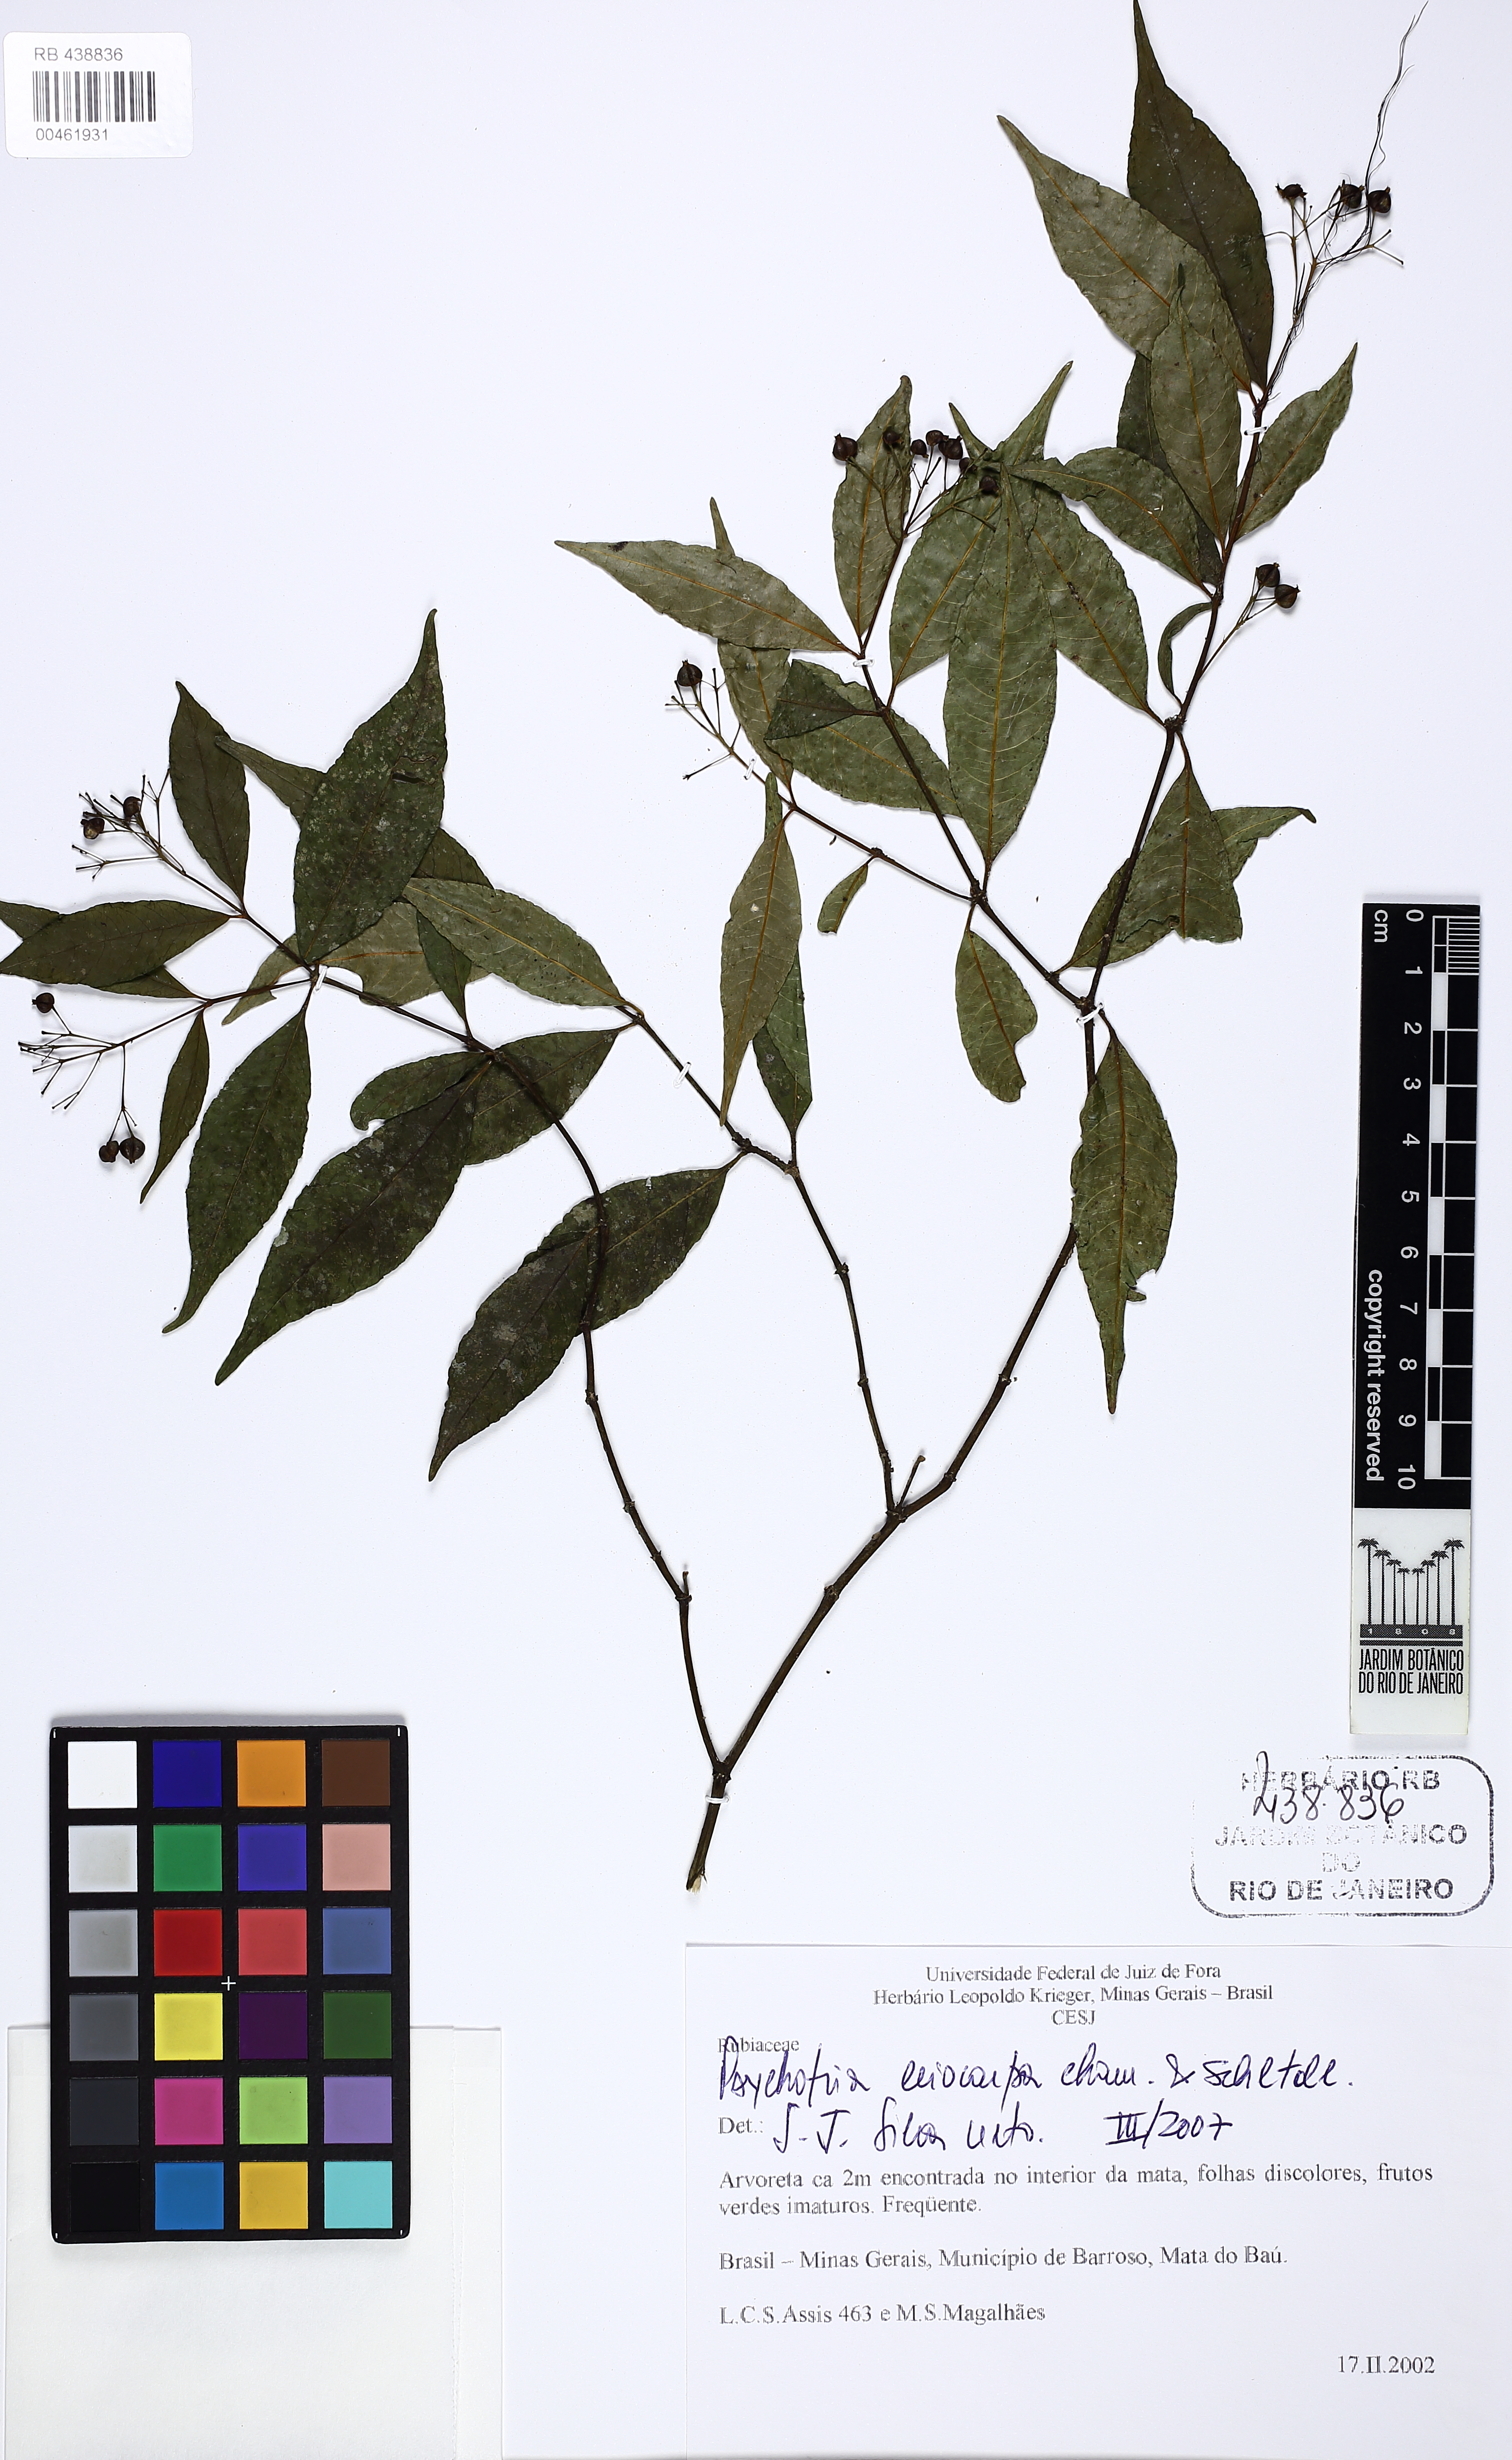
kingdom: Plantae
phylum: Tracheophyta
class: Magnoliopsida
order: Gentianales
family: Rubiaceae
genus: Psychotria
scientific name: Psychotria leiocarpa
